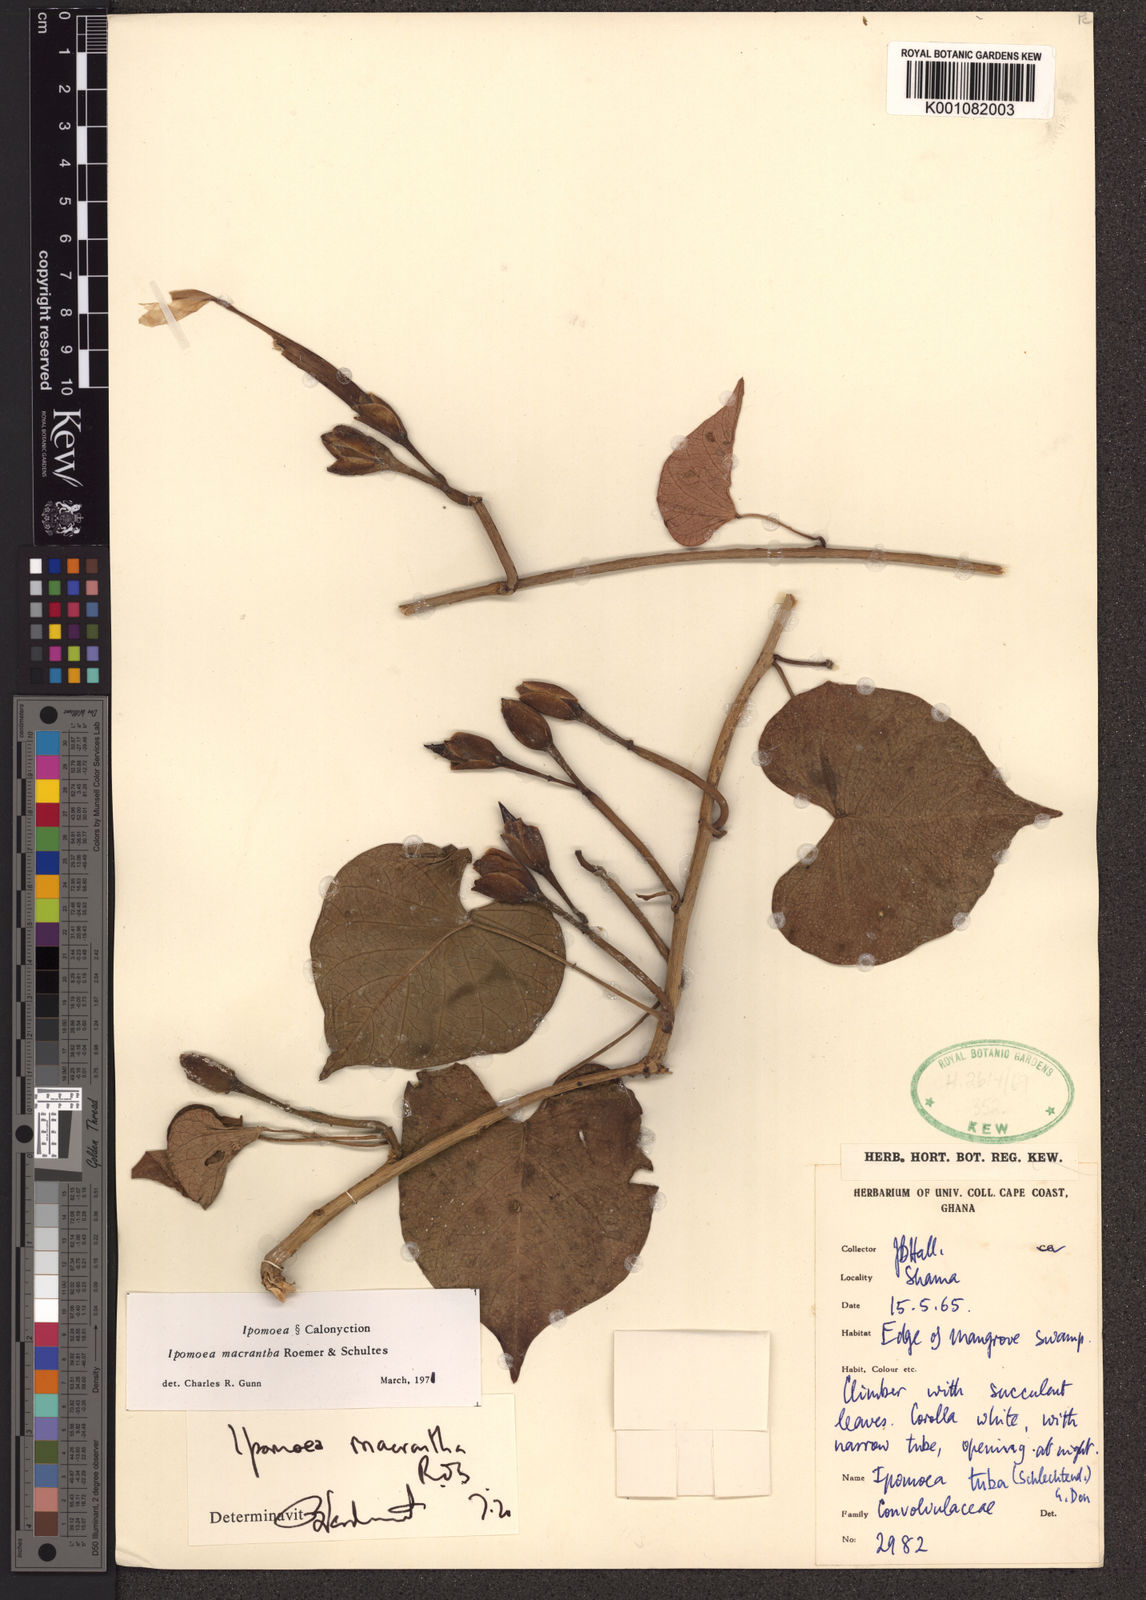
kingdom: Plantae
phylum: Tracheophyta
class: Magnoliopsida
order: Solanales
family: Convolvulaceae
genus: Ipomoea
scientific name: Ipomoea violacea
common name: Beach moonflower
